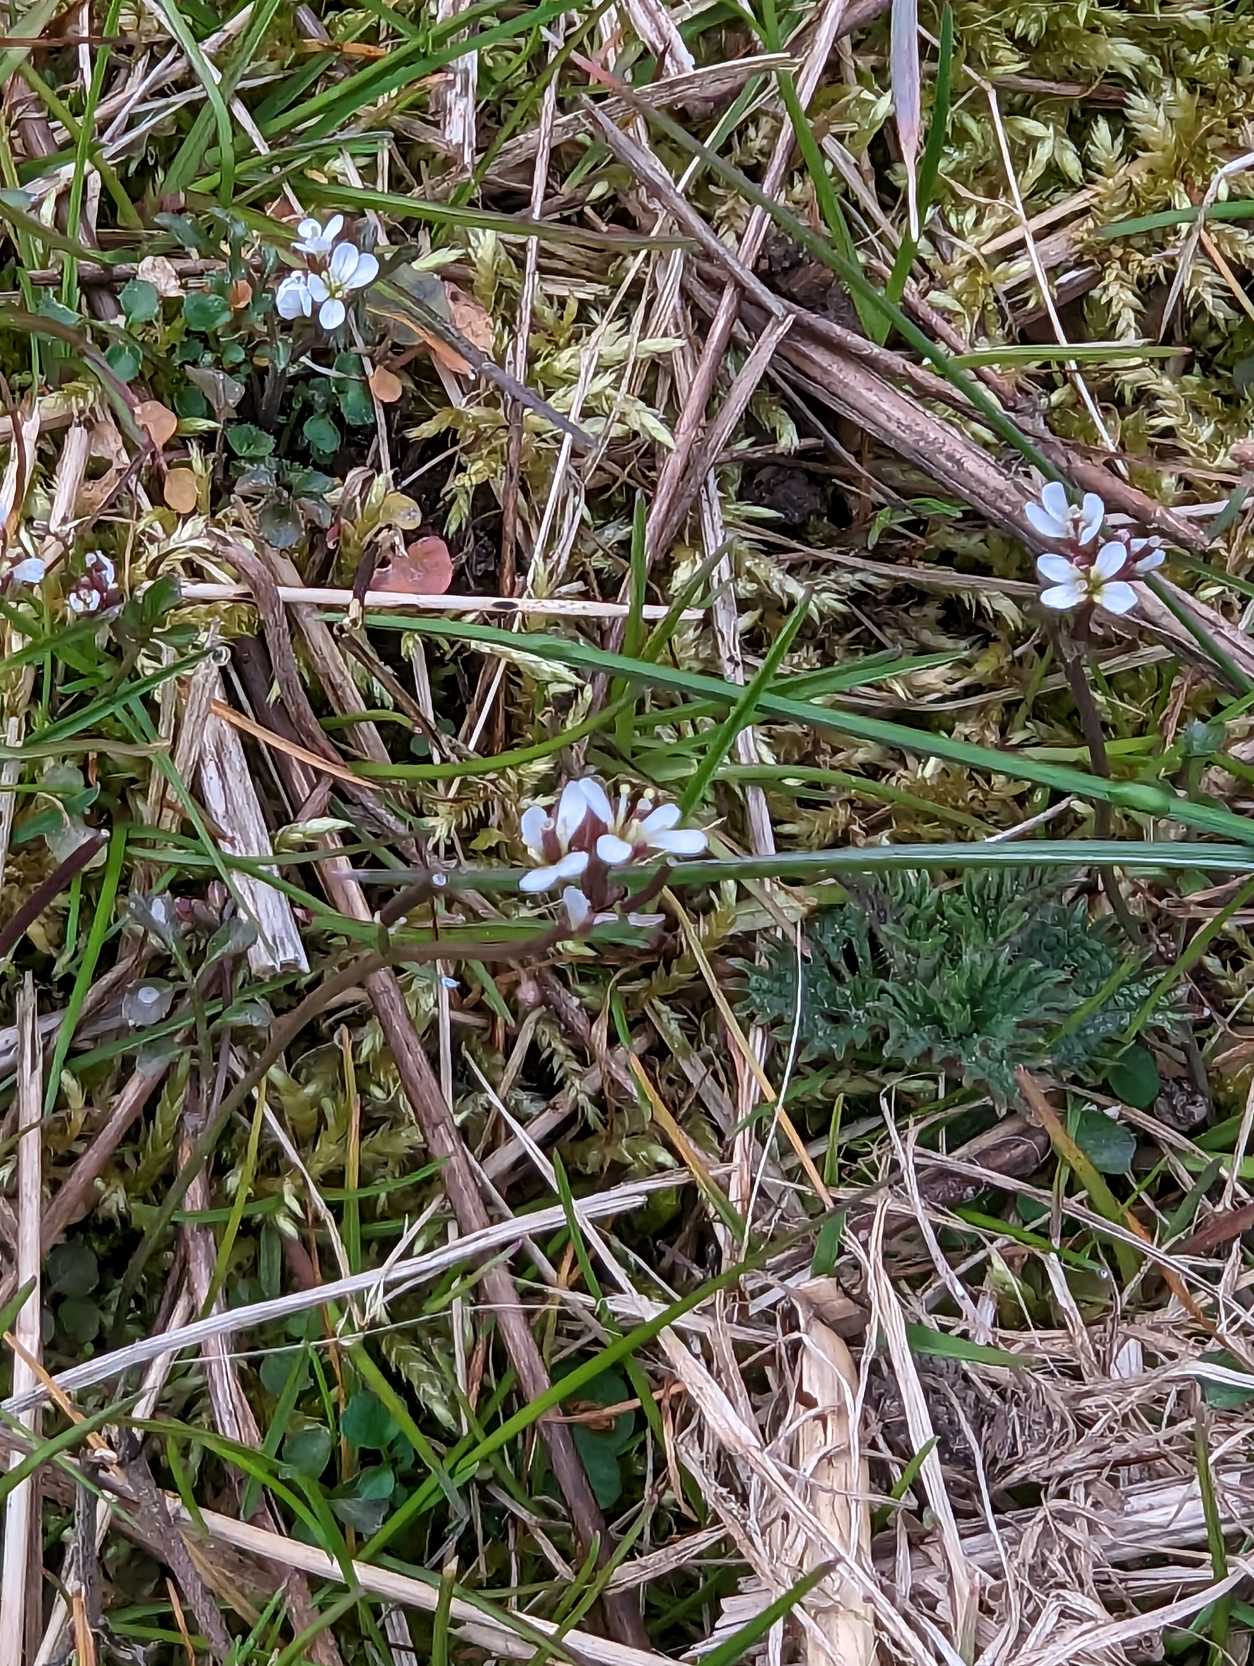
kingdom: Plantae
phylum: Tracheophyta
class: Magnoliopsida
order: Brassicales
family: Brassicaceae
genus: Cardamine
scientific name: Cardamine hirsuta
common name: Roset-springklap
